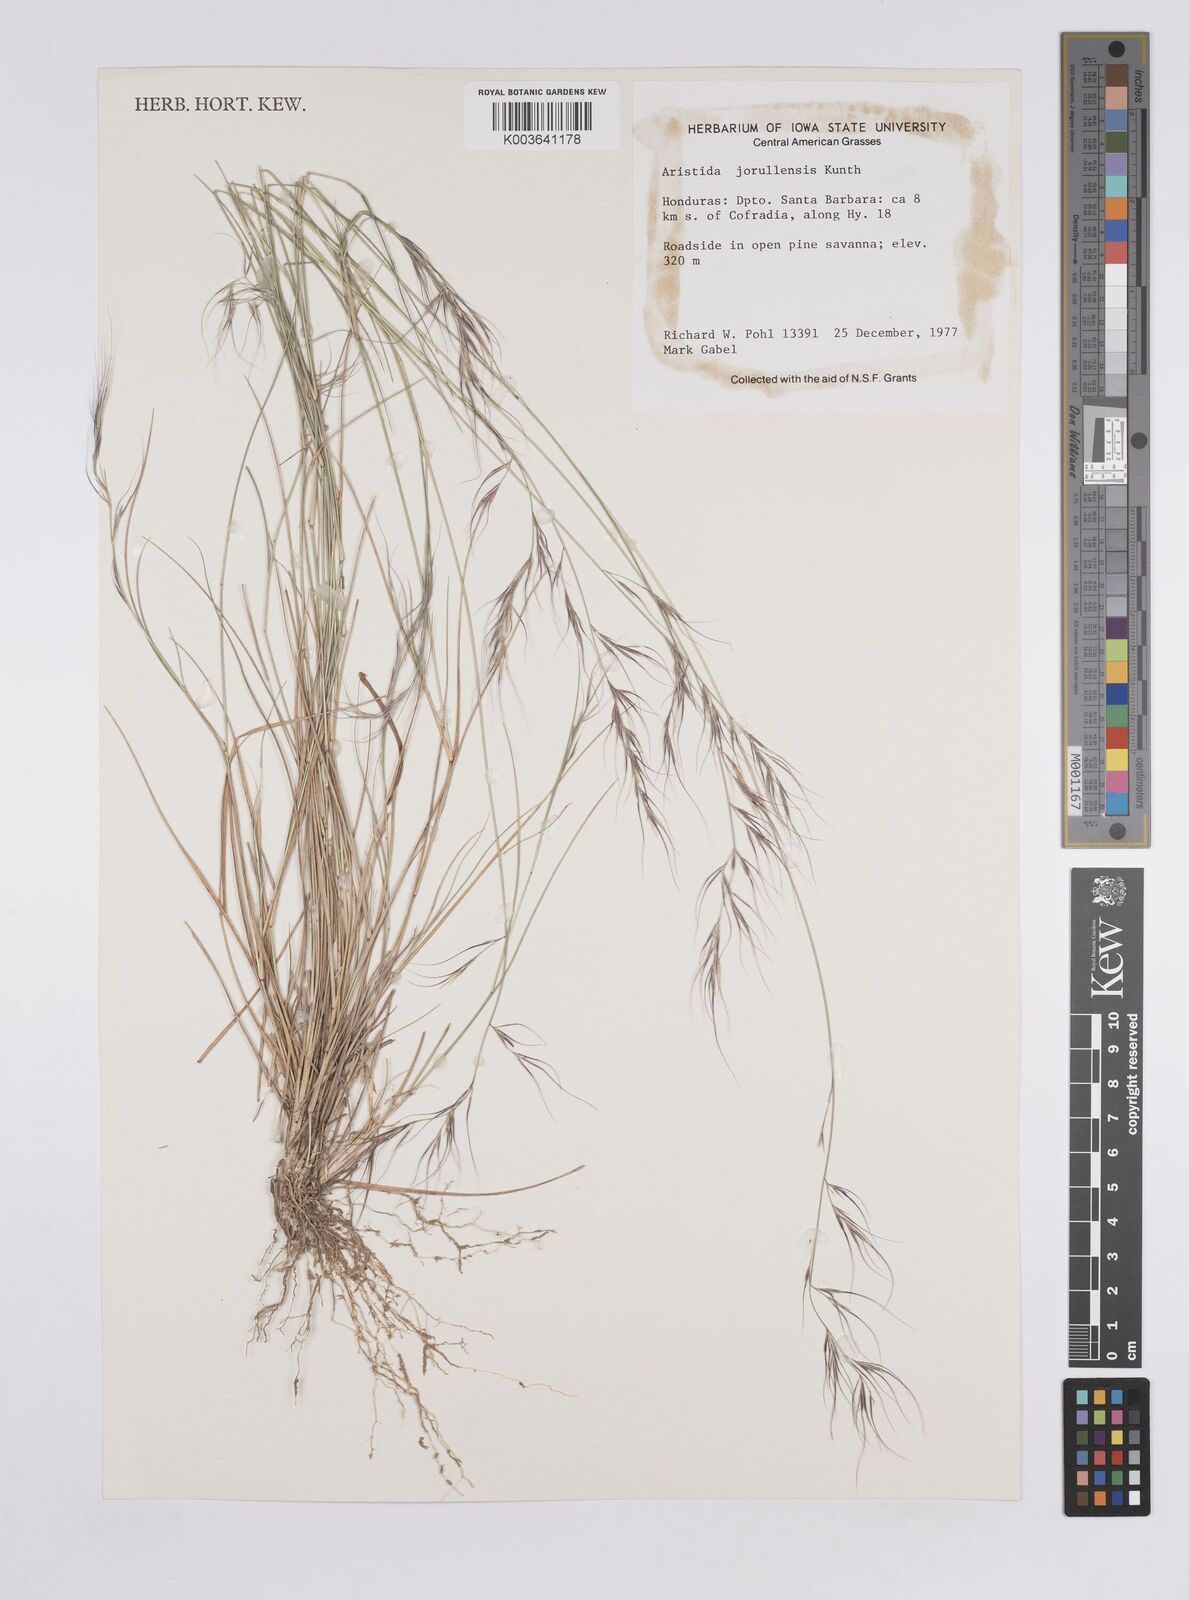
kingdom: Plantae
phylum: Tracheophyta
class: Liliopsida
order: Poales
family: Poaceae
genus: Aristida
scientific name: Aristida jorullensis
